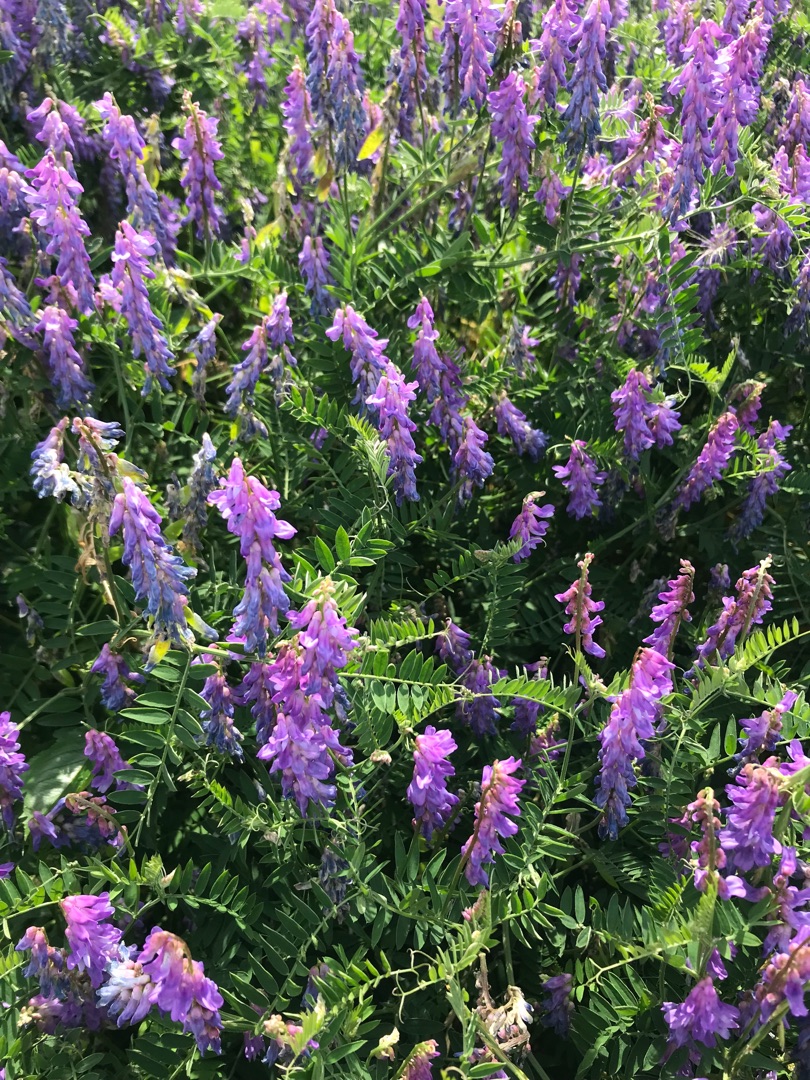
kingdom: Plantae
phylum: Tracheophyta
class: Magnoliopsida
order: Fabales
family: Fabaceae
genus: Vicia
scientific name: Vicia cracca
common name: Muse-vikke
